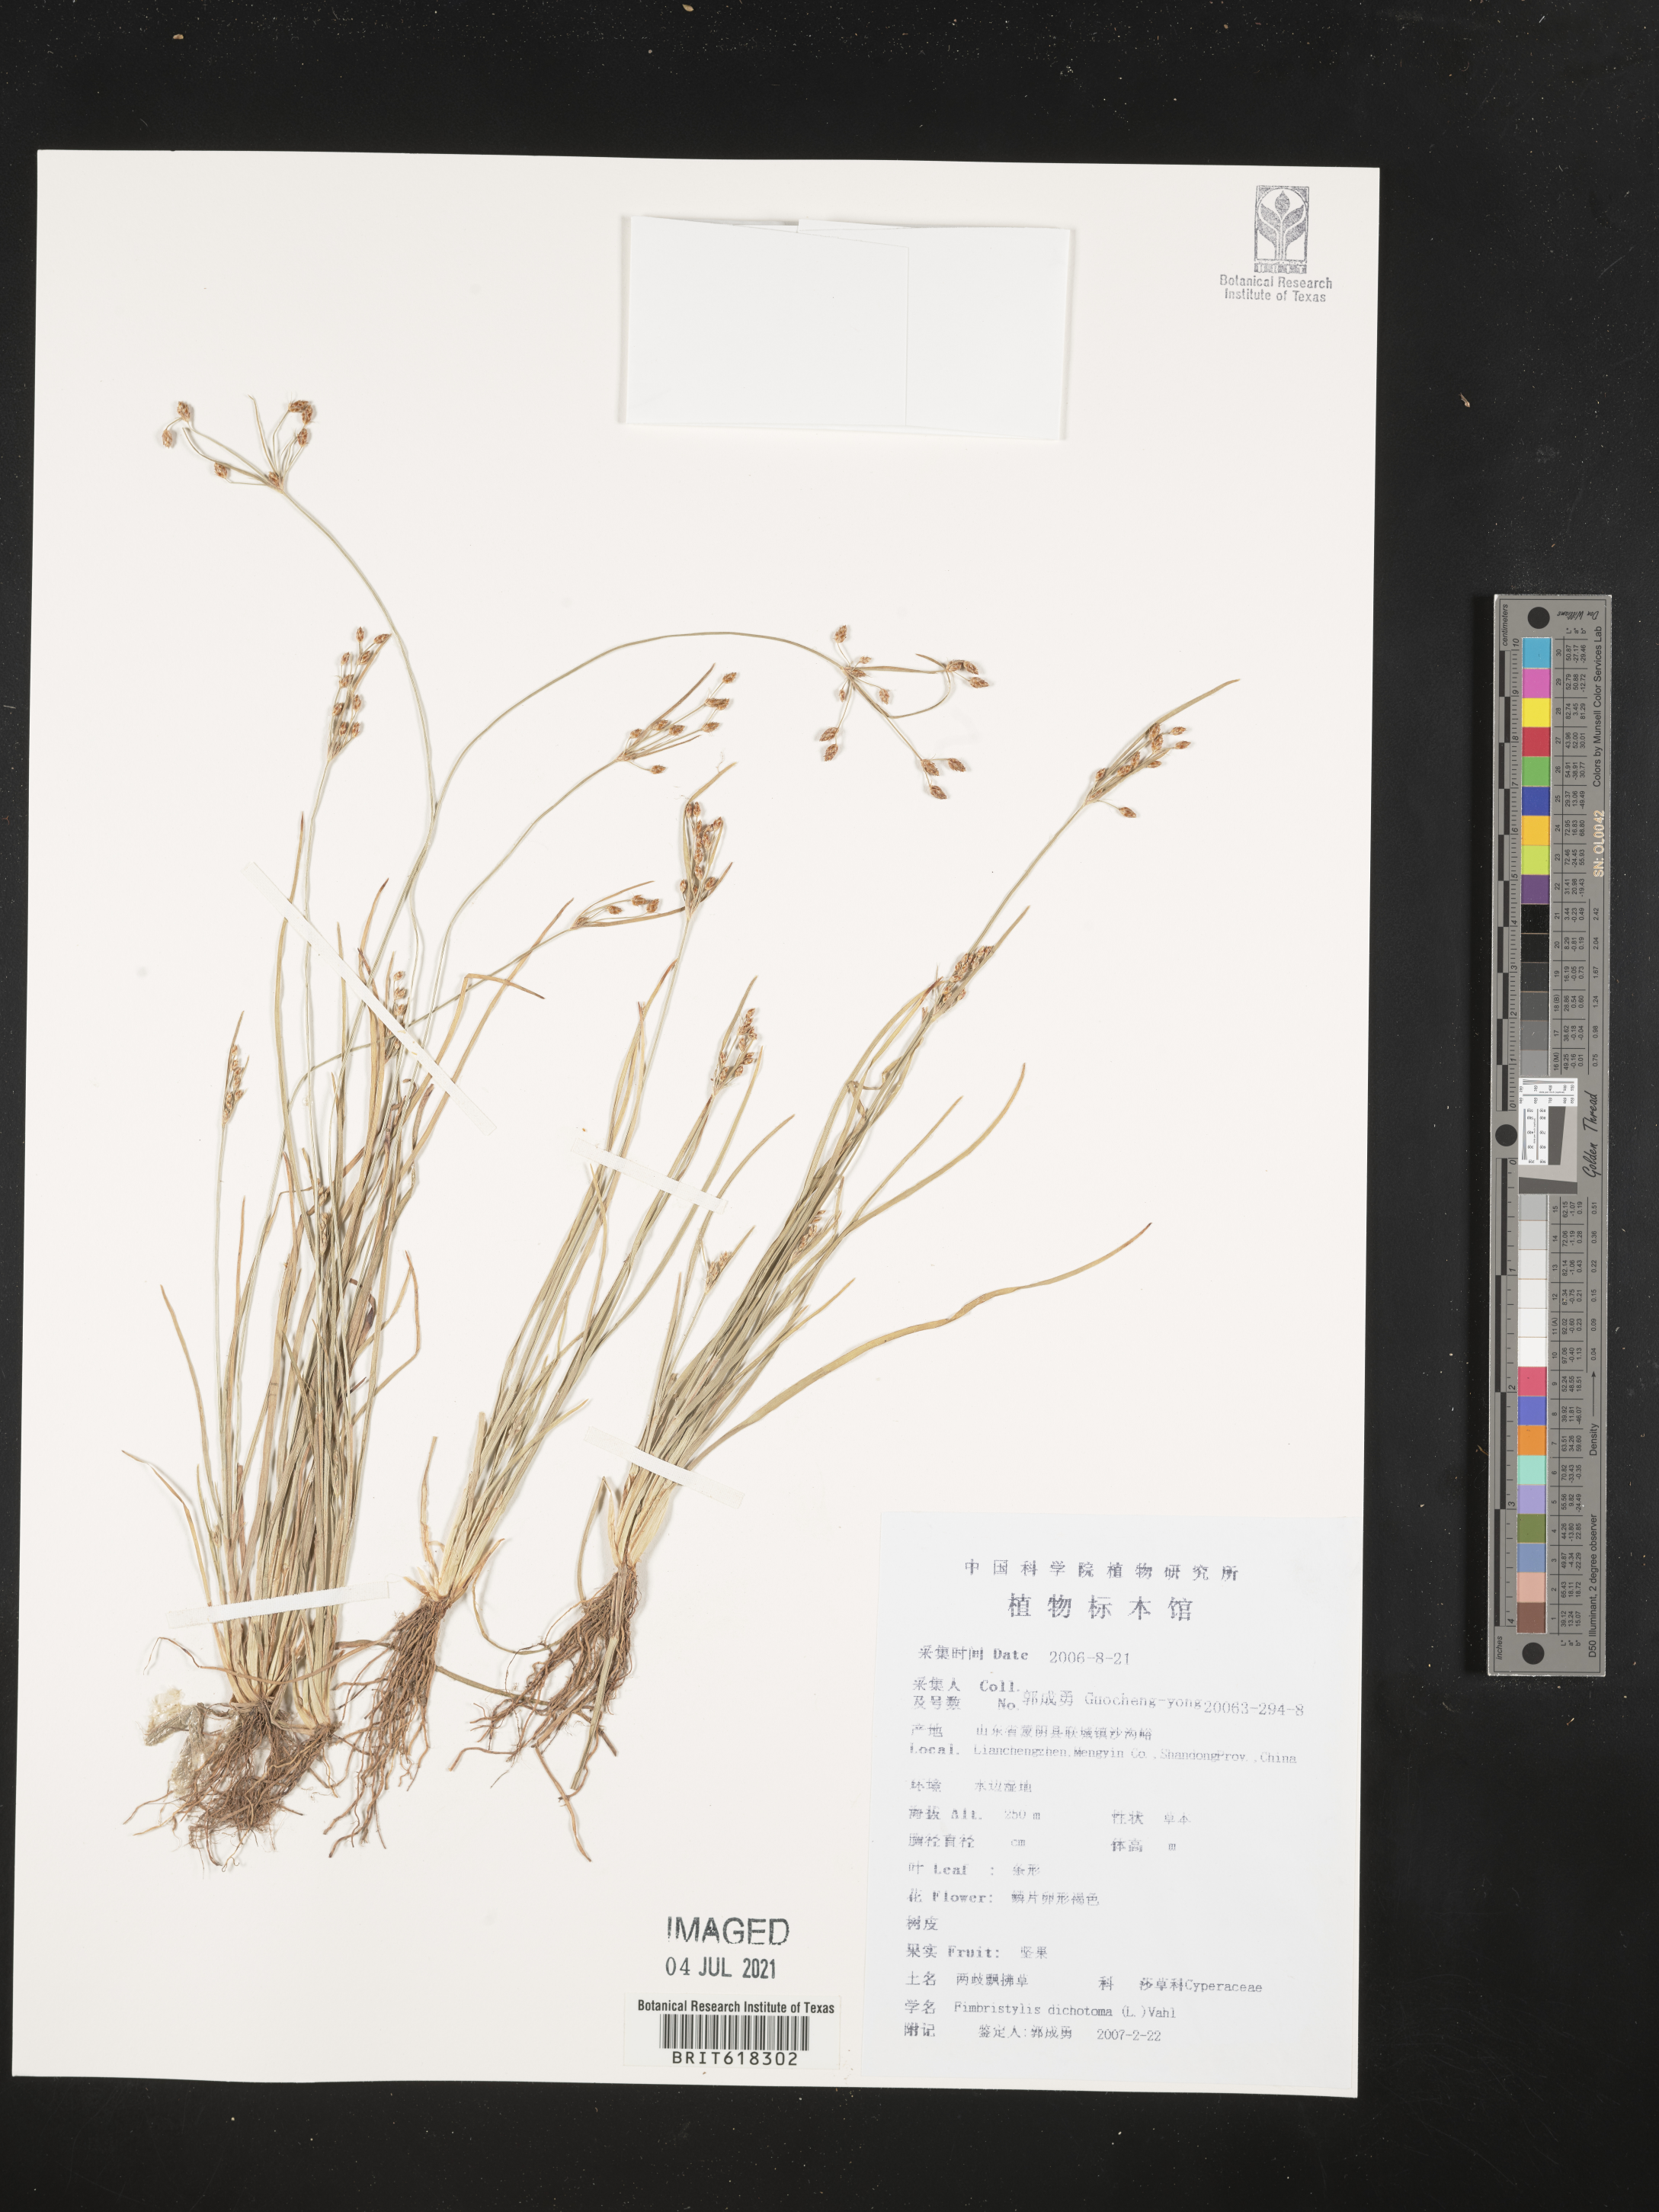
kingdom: Plantae
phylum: Tracheophyta
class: Liliopsida
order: Poales
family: Cyperaceae
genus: Fimbristylis
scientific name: Fimbristylis dichotoma
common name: Forked fimbry
